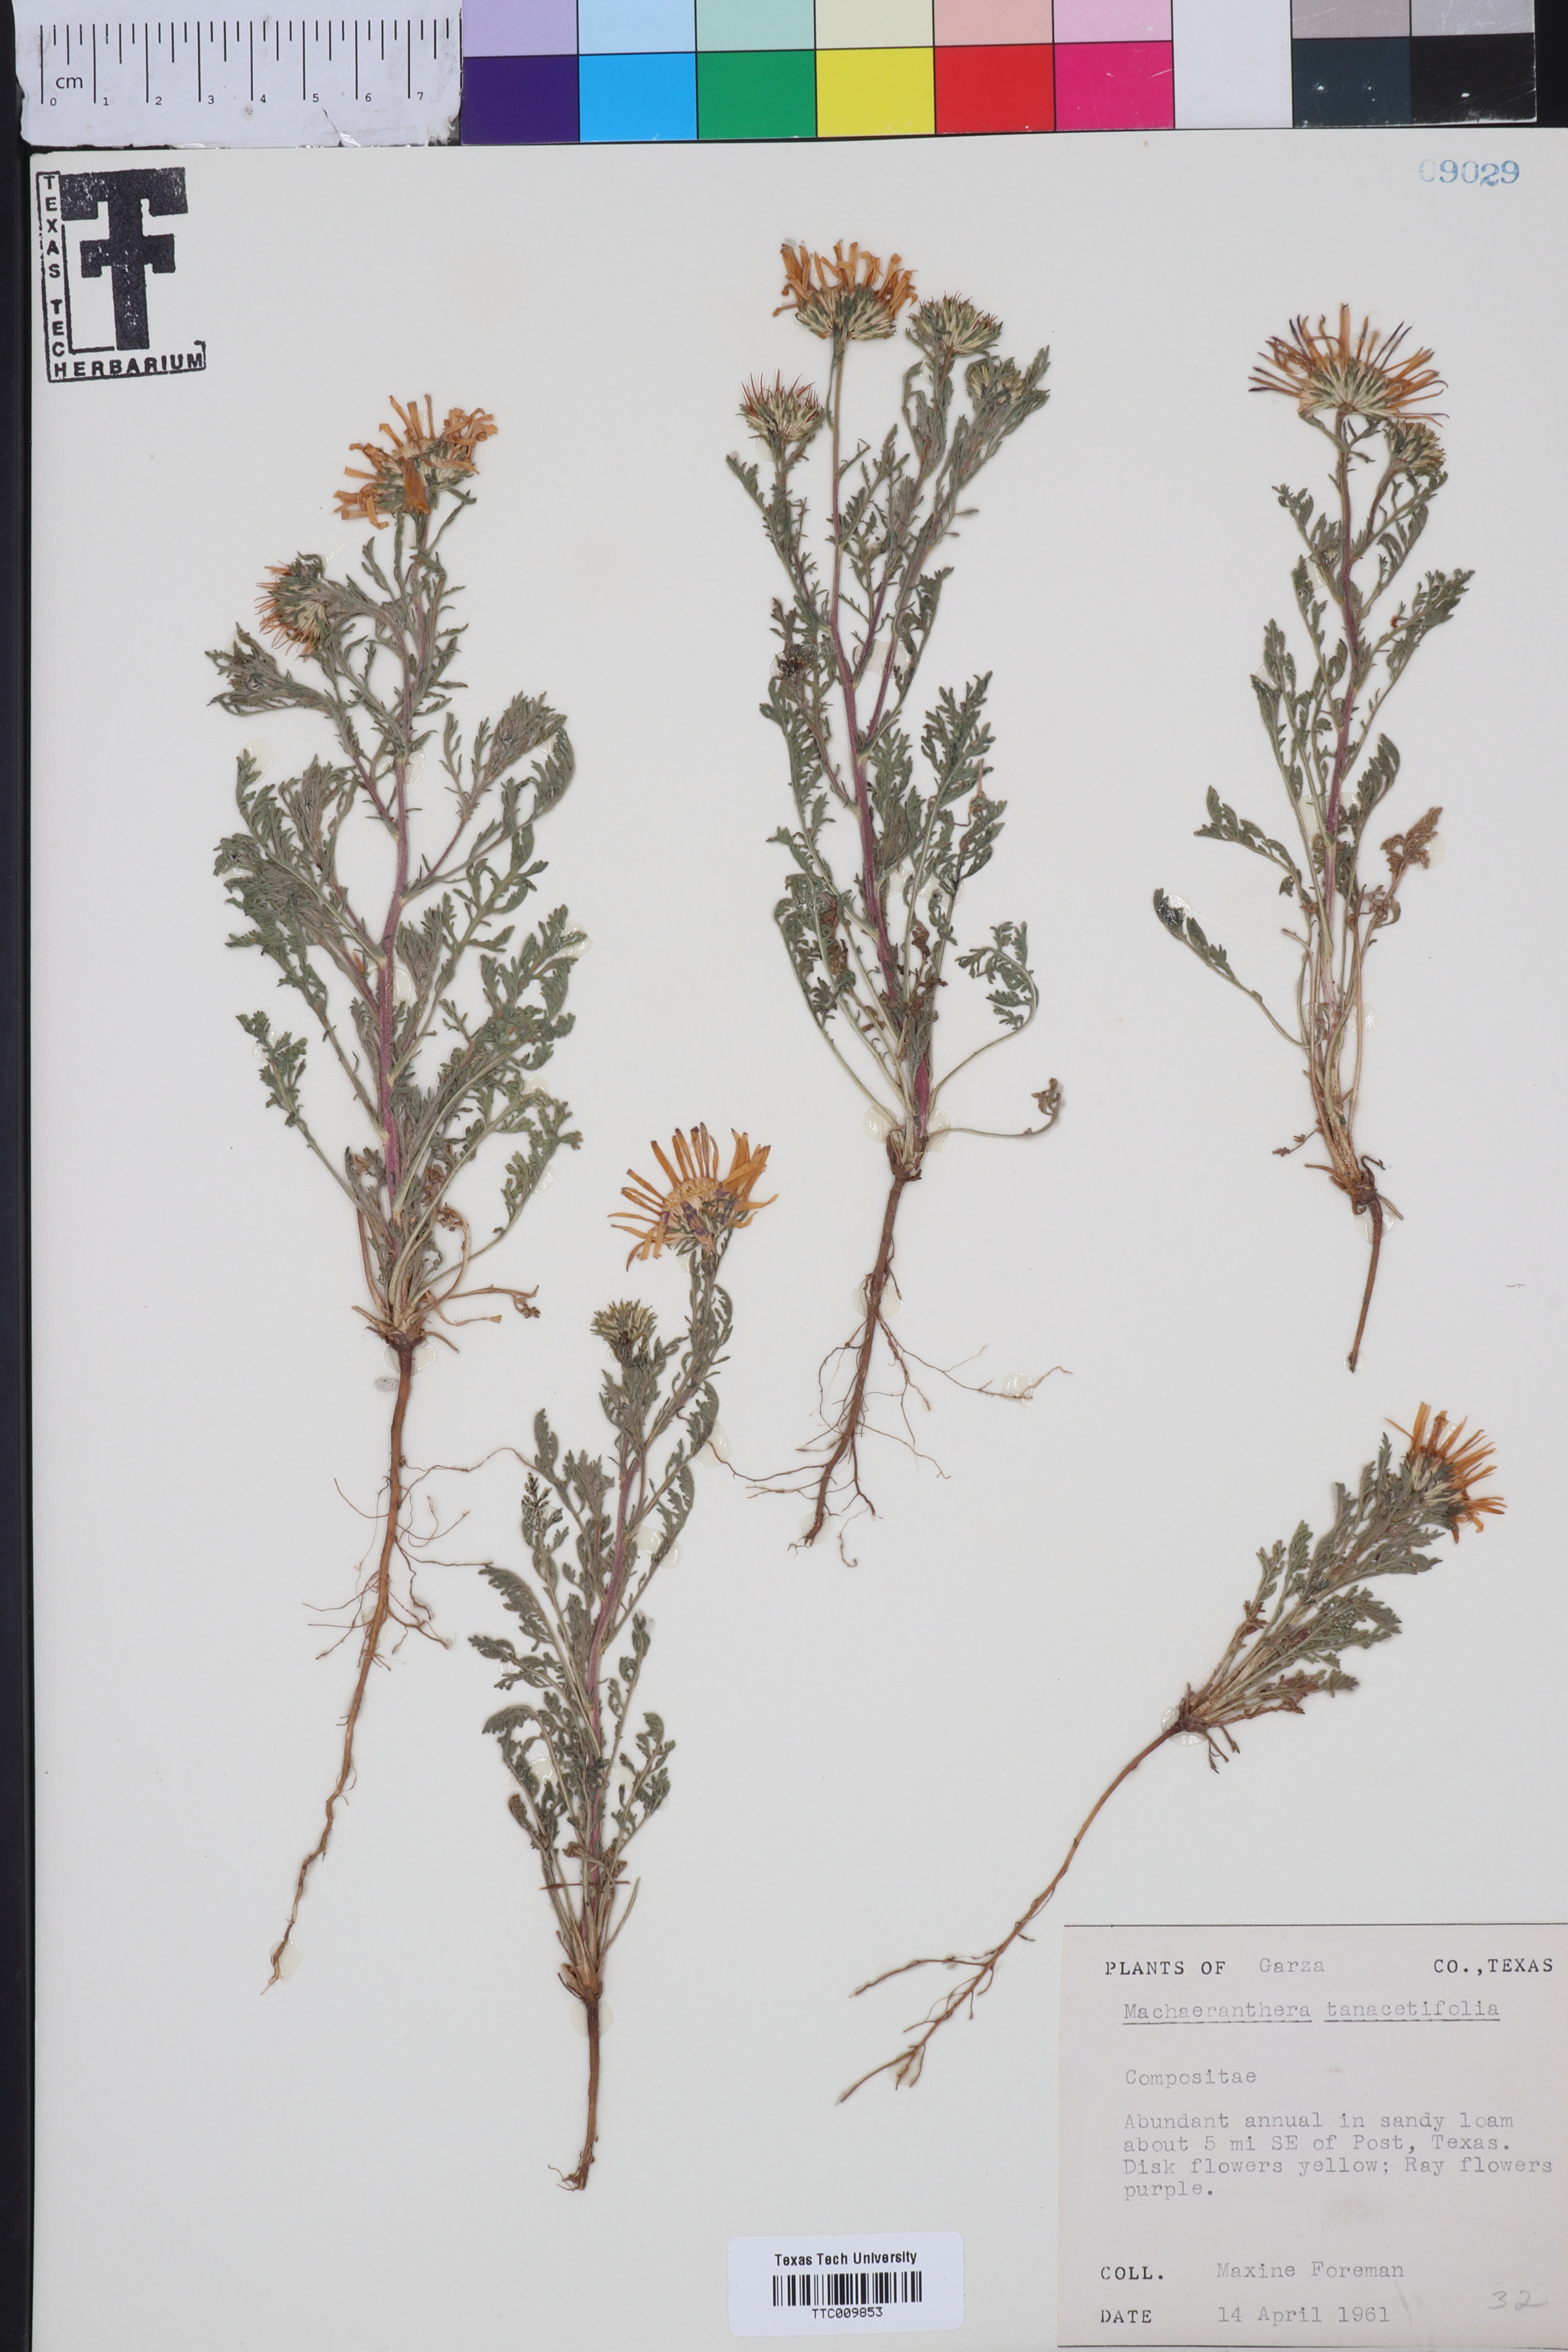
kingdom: Plantae
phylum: Tracheophyta
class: Magnoliopsida
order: Asterales
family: Asteraceae
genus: Machaeranthera
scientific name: Machaeranthera tanacetifolia
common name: Tansy-aster
